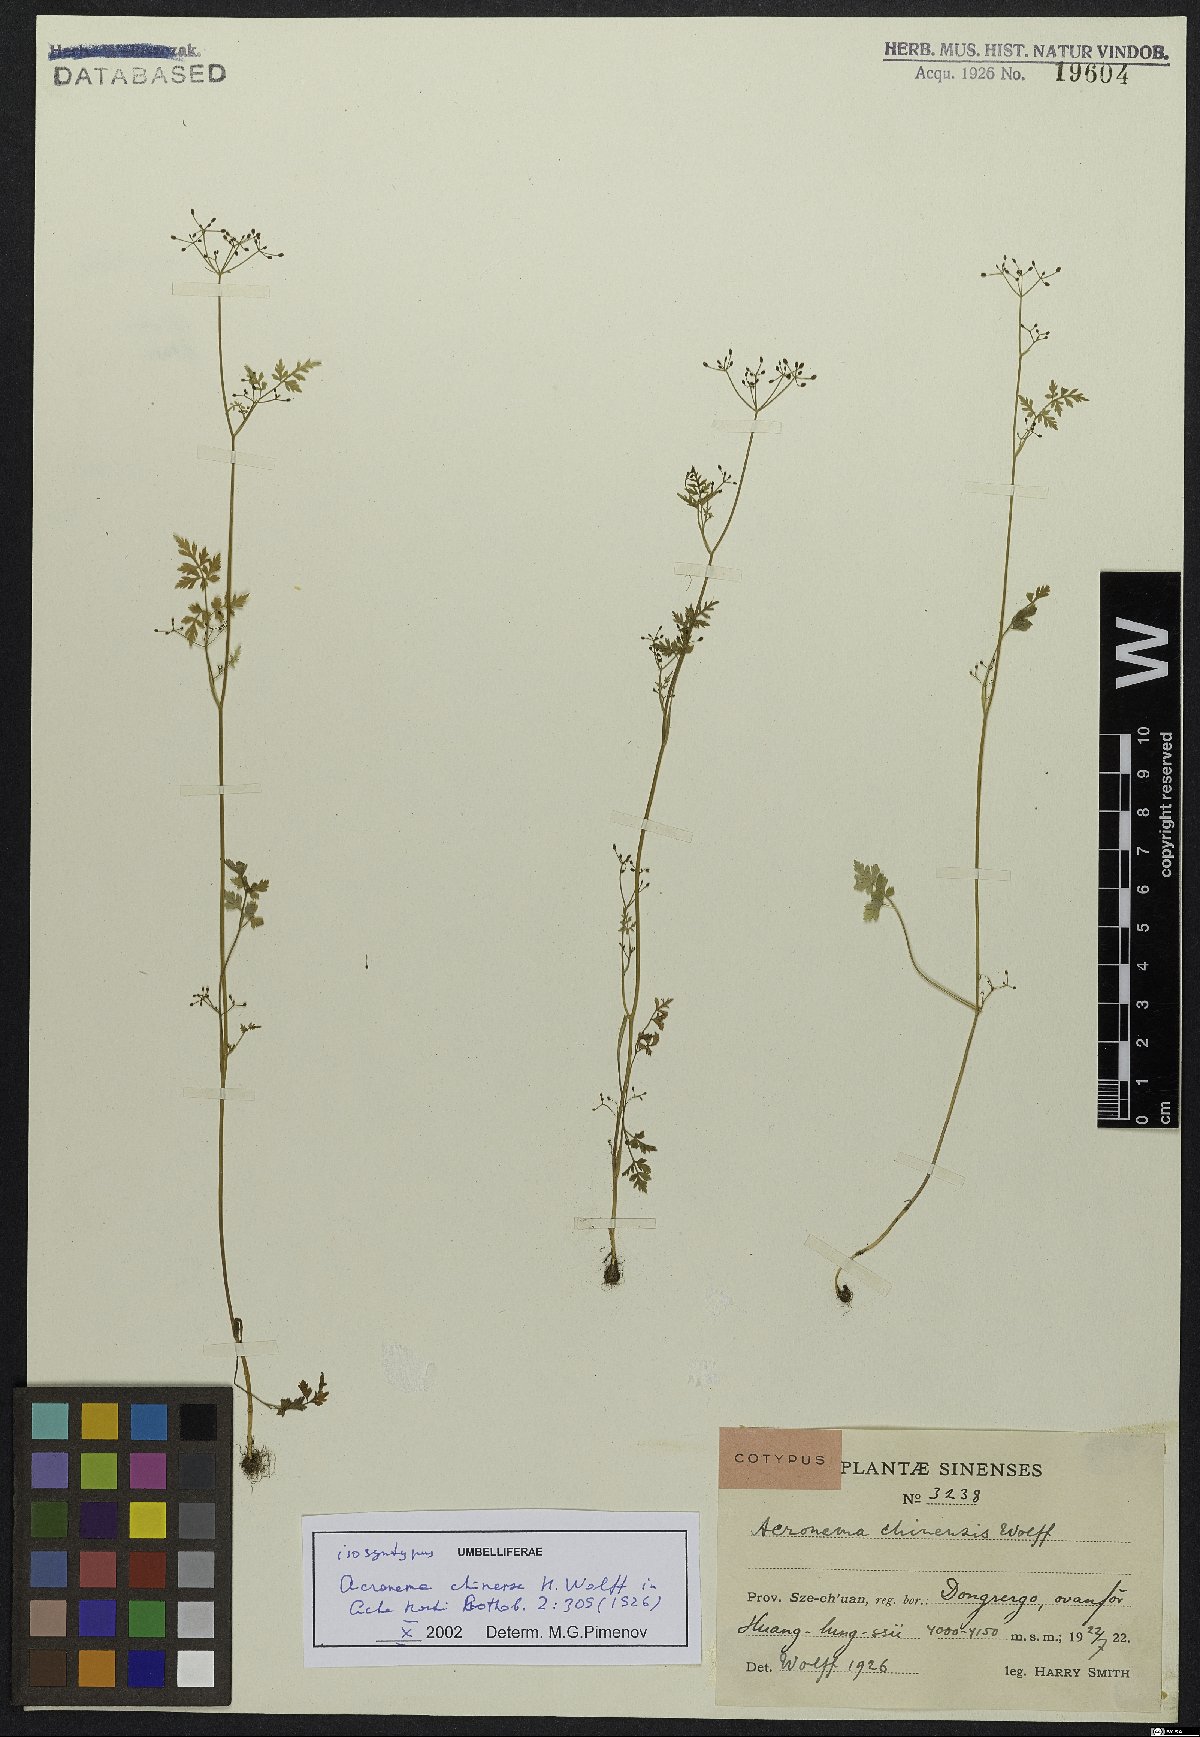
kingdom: Plantae
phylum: Tracheophyta
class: Magnoliopsida
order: Apiales
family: Apiaceae
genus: Acronema
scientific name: Acronema chinense
